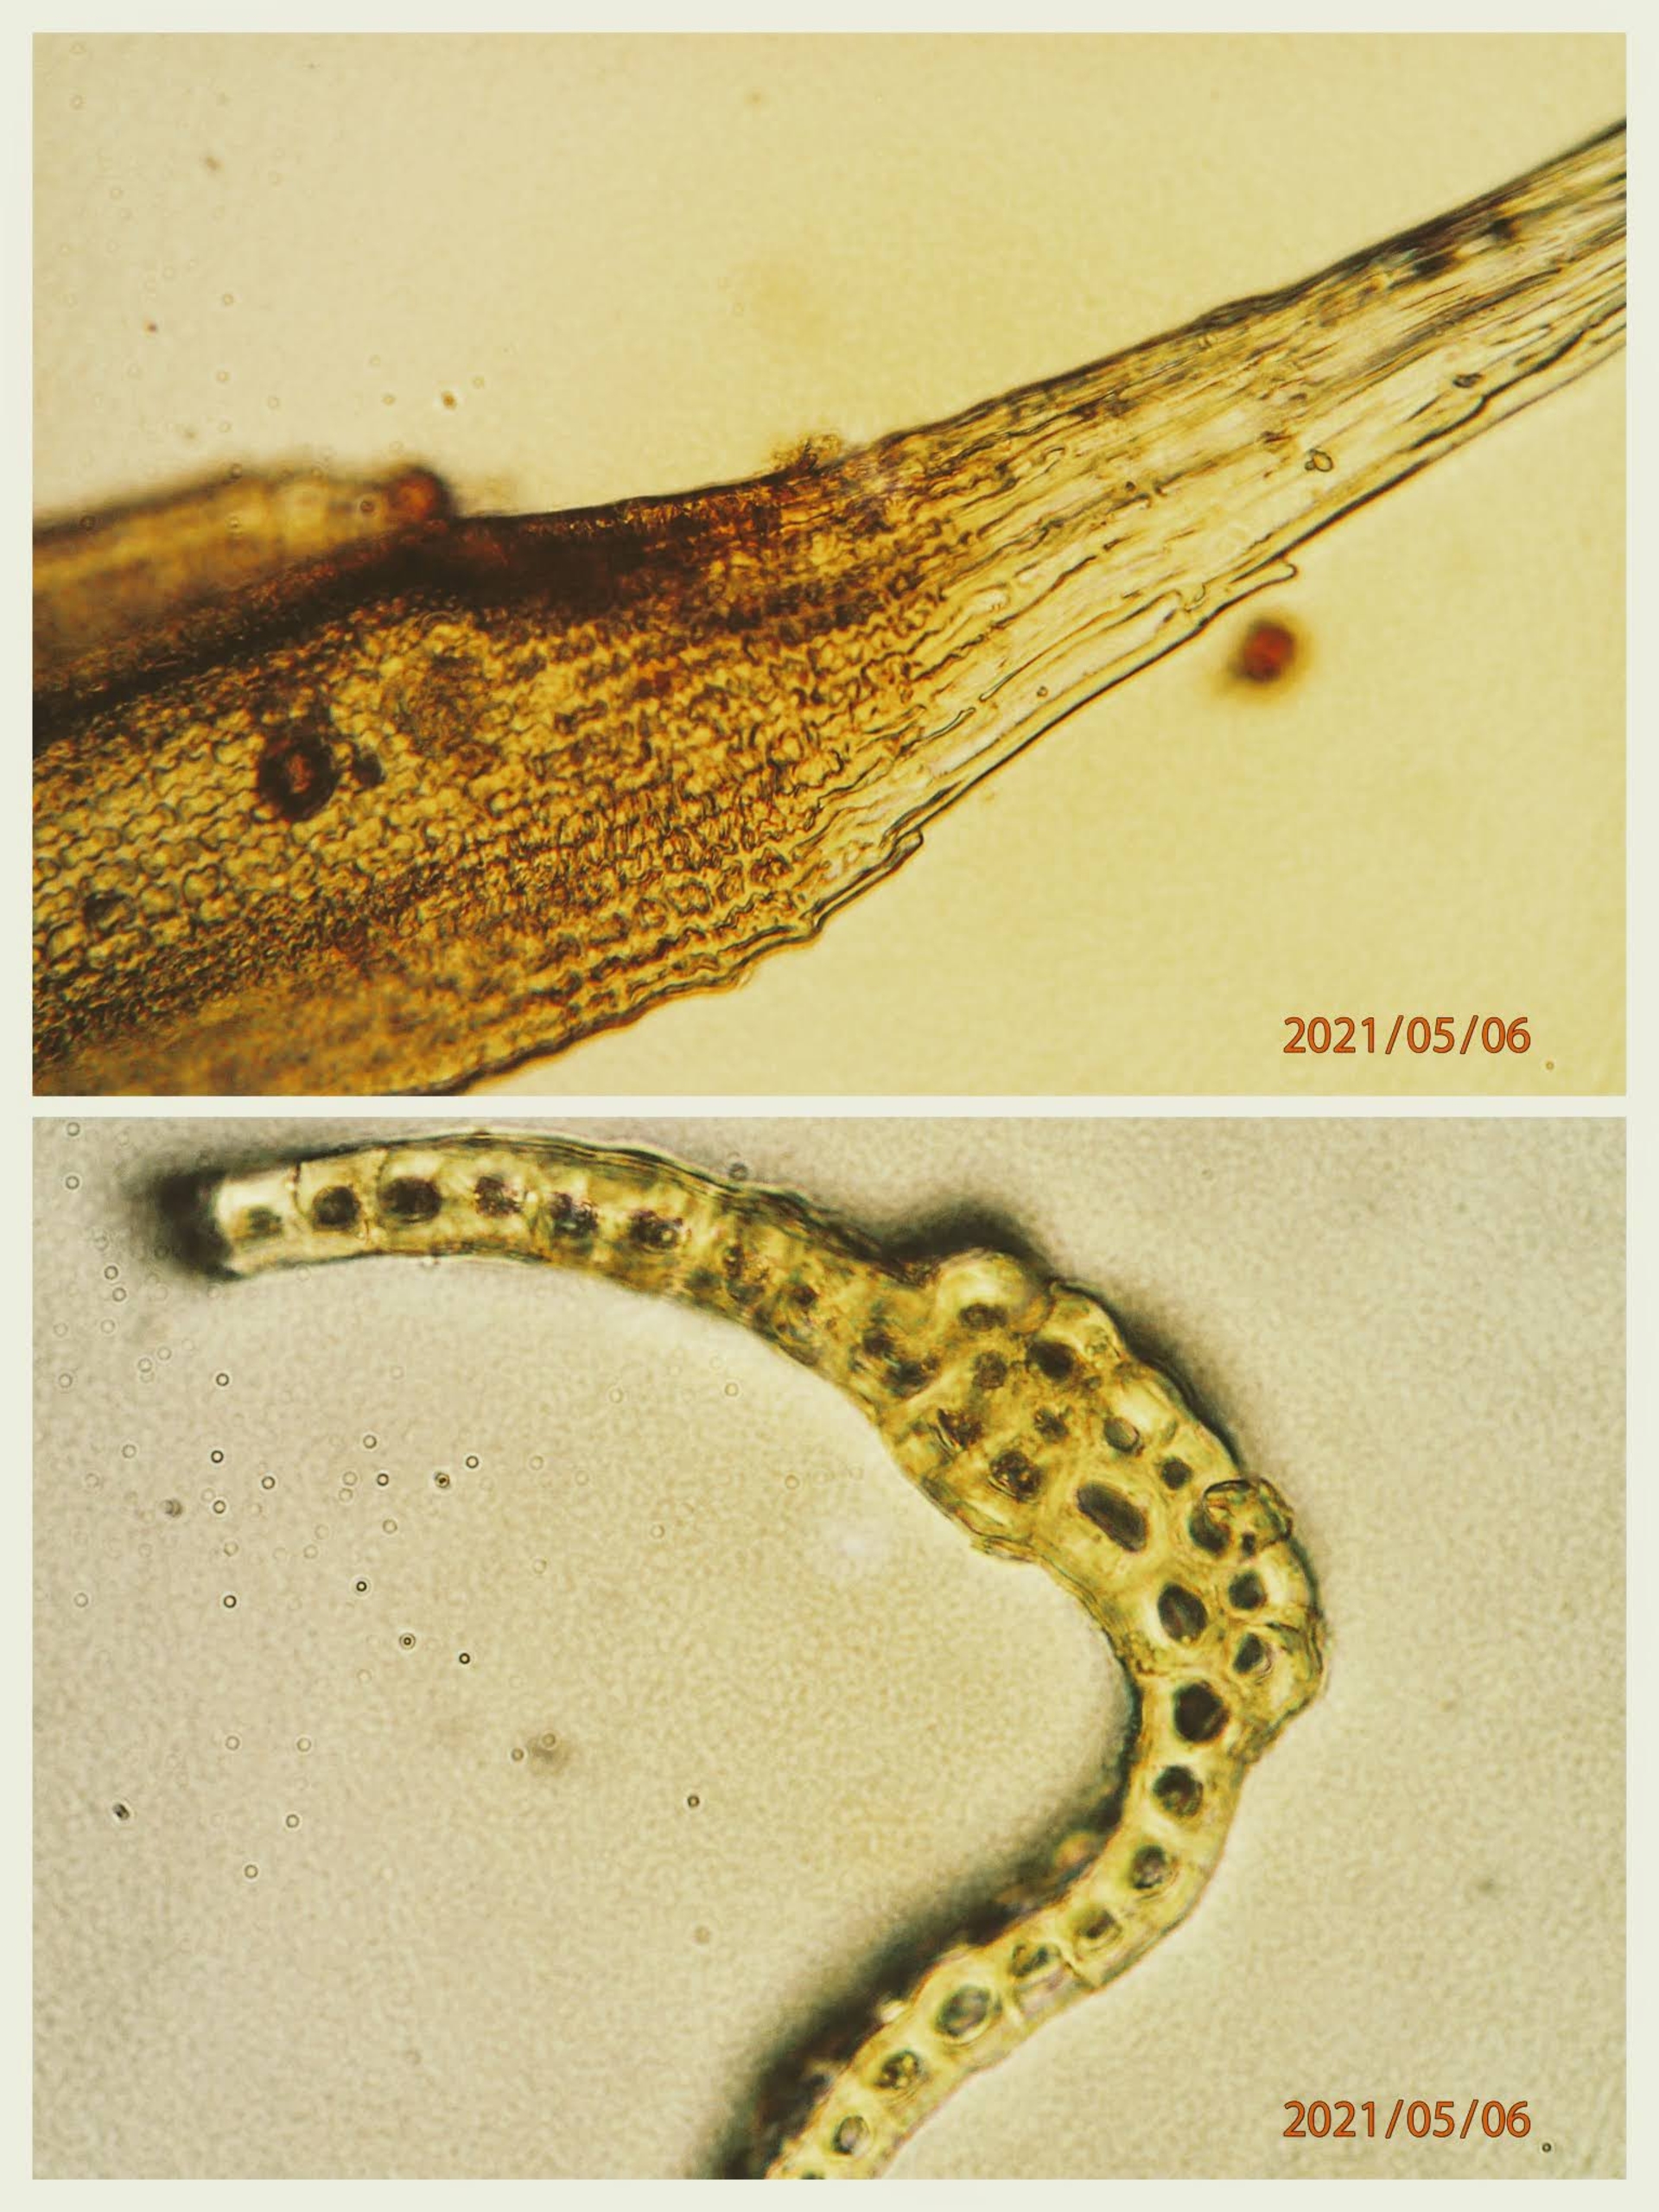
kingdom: Plantae
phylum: Bryophyta
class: Bryopsida
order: Grimmiales
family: Grimmiaceae
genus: Bucklandiella
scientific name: Bucklandiella heterosticha
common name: Sten-børstemos
